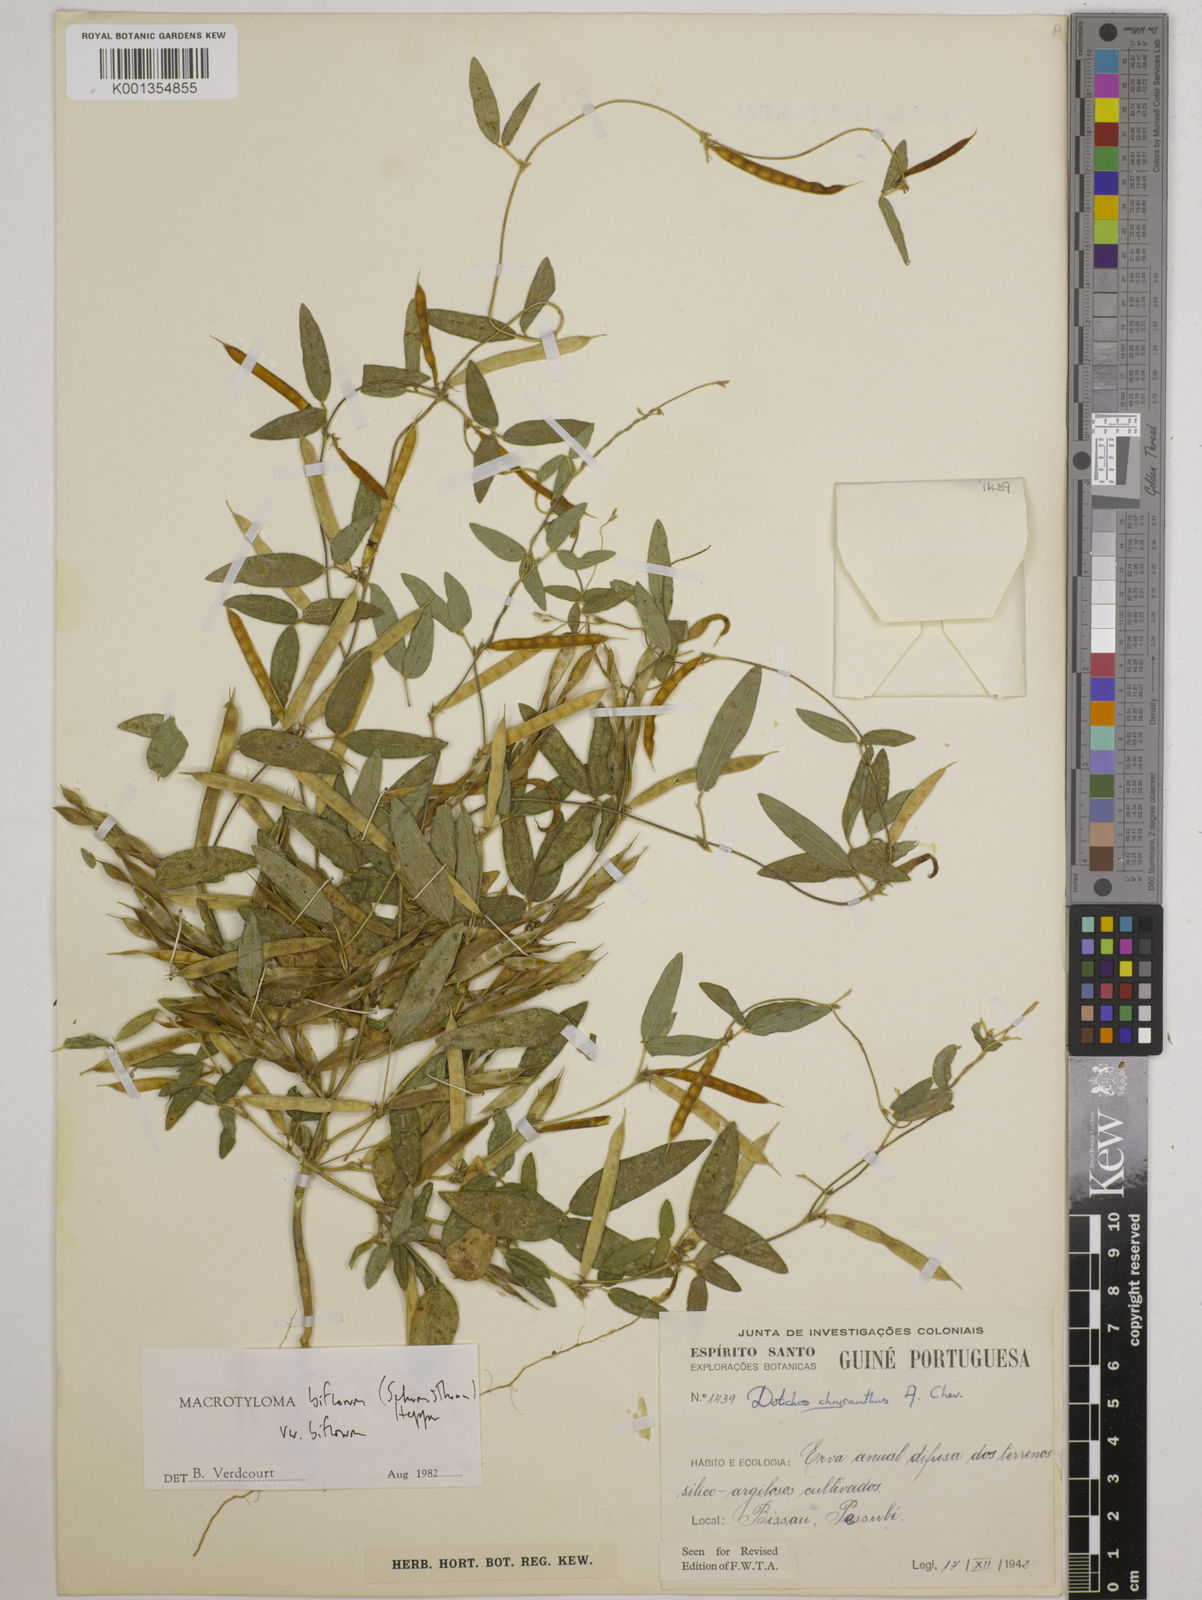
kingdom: Plantae
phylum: Tracheophyta
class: Magnoliopsida
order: Fabales
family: Fabaceae
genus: Macrotyloma
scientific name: Macrotyloma biflorum
